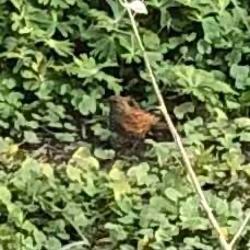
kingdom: Animalia
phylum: Chordata
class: Aves
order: Passeriformes
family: Prunellidae
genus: Prunella
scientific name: Prunella modularis
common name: Jernspurv
